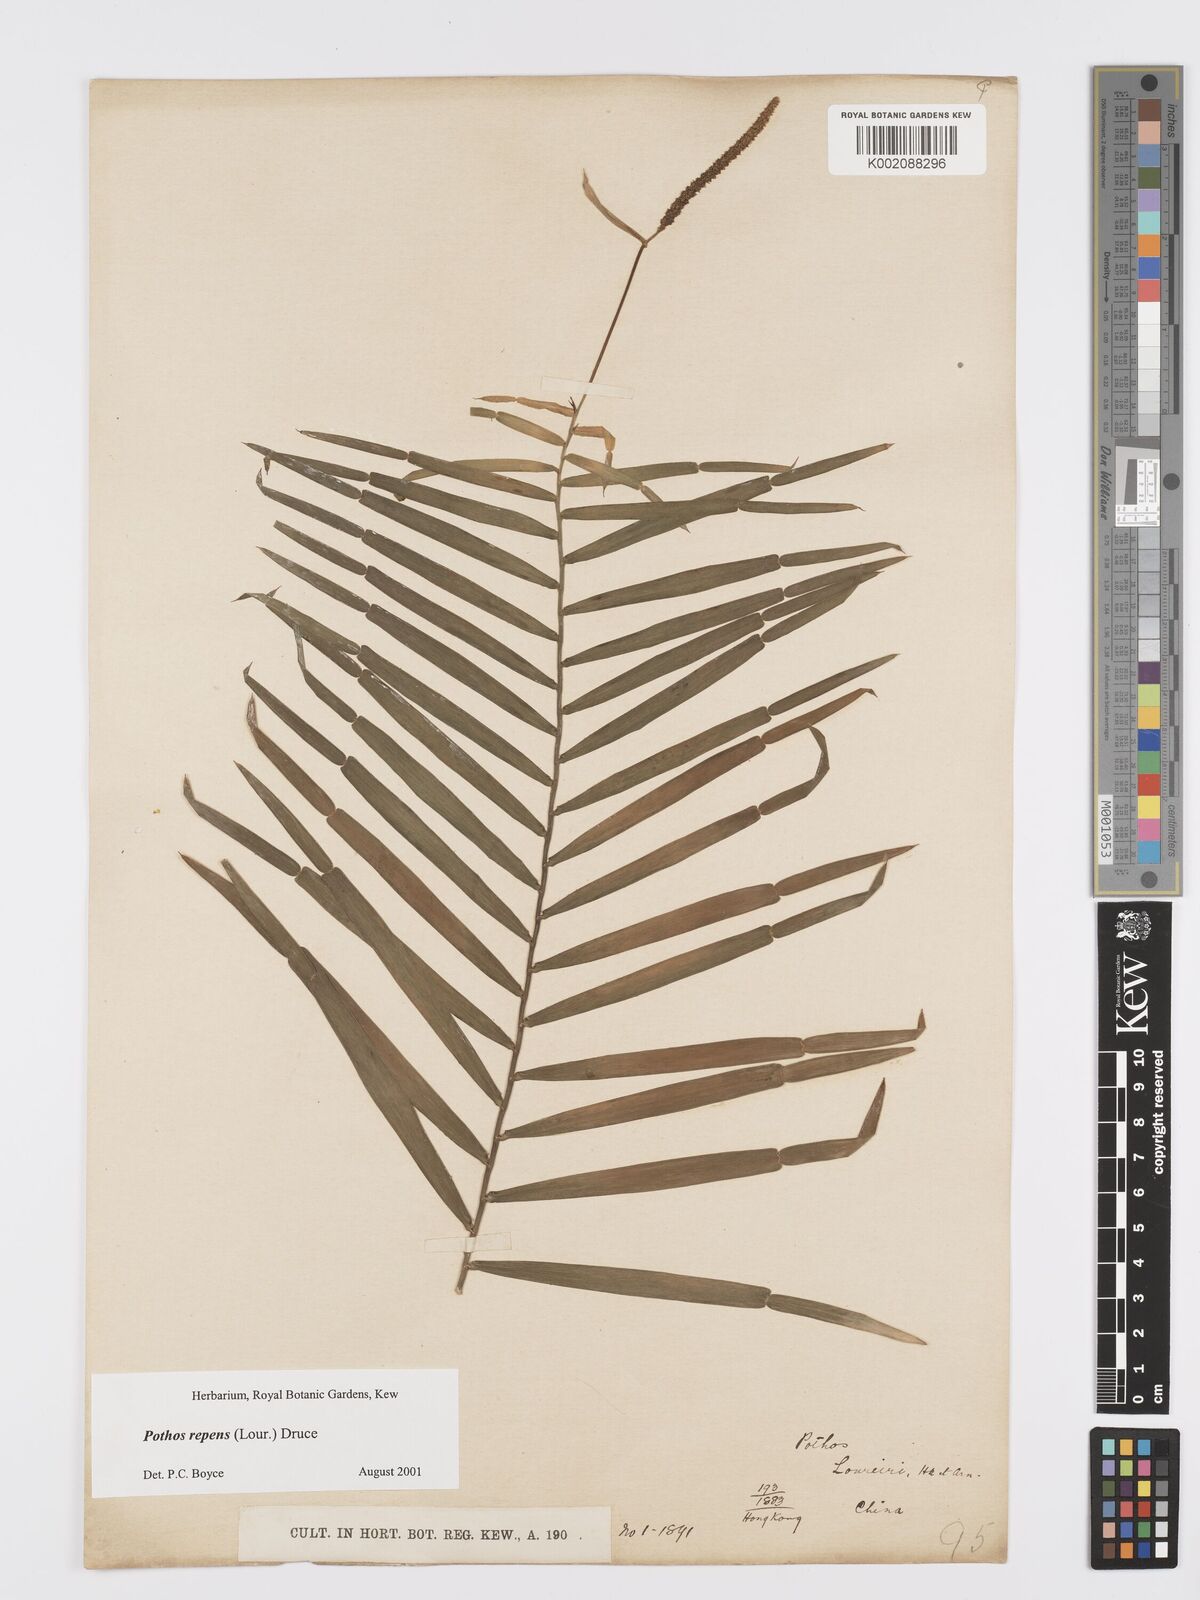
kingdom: Plantae
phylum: Tracheophyta
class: Liliopsida
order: Alismatales
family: Araceae
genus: Pothos
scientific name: Pothos repens
